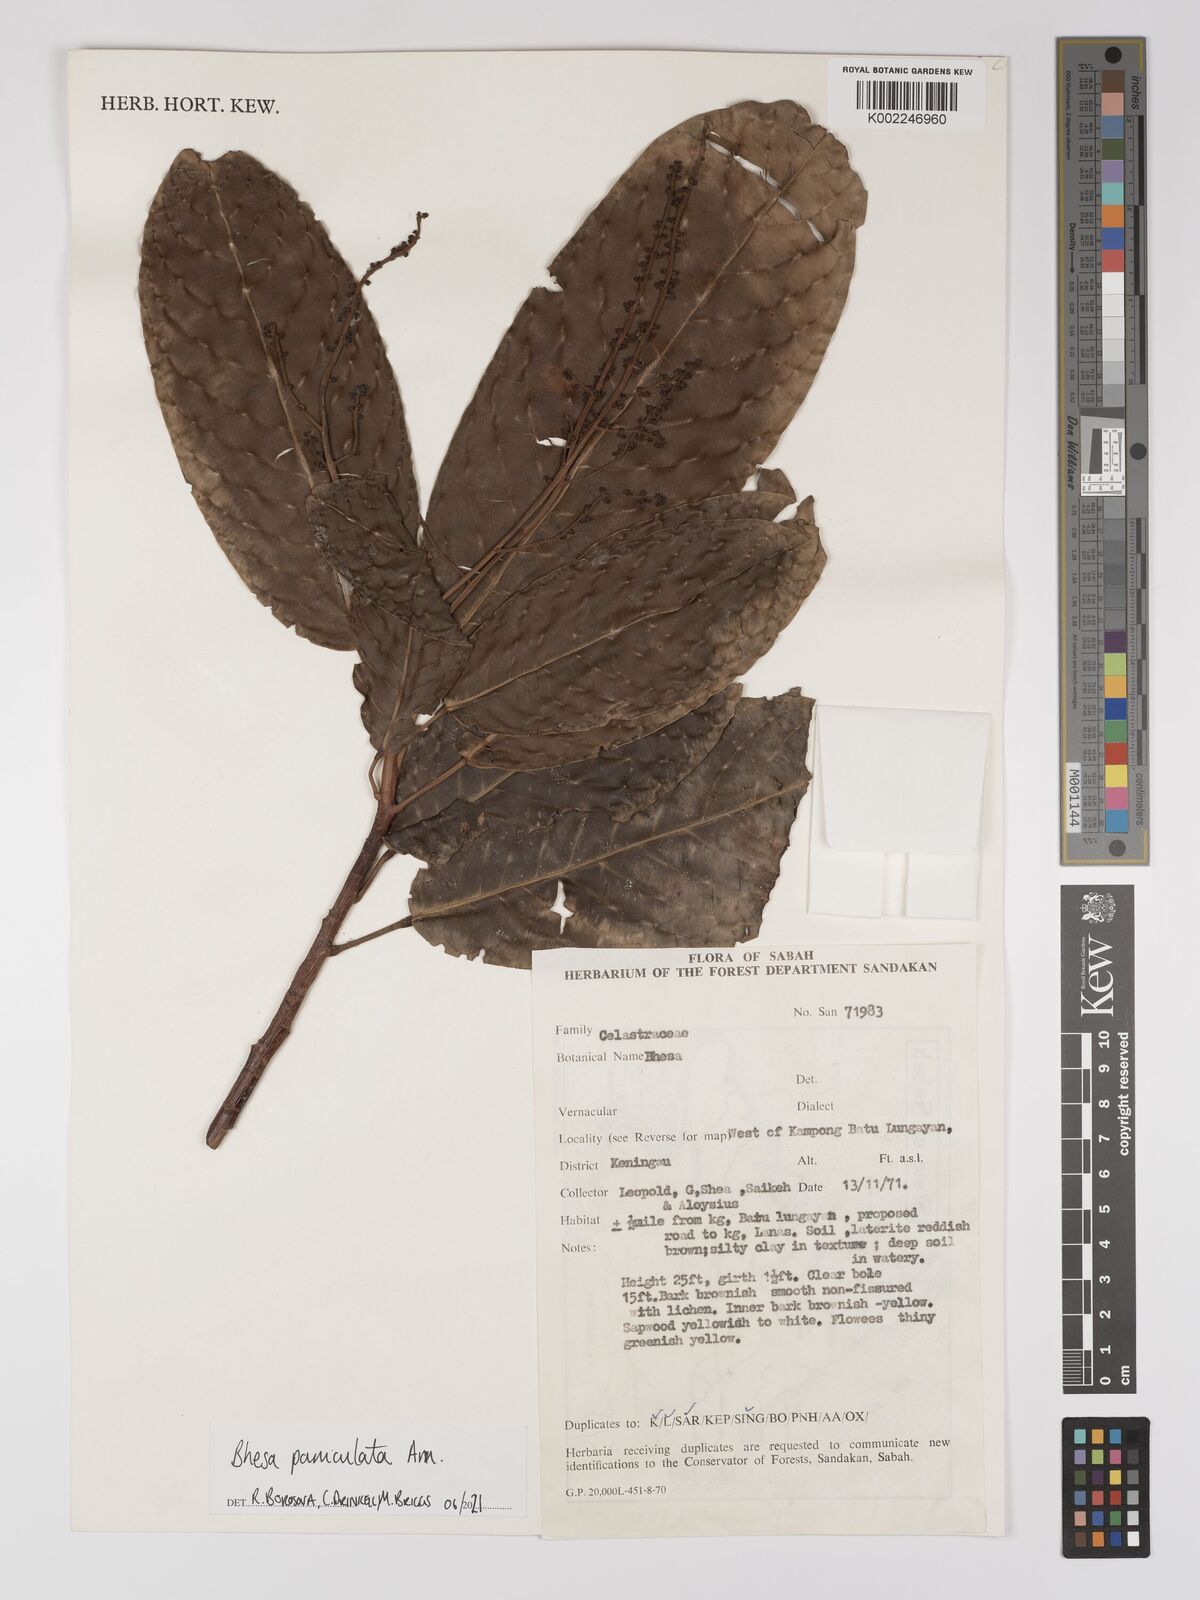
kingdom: Plantae
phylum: Tracheophyta
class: Magnoliopsida
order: Malpighiales
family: Centroplacaceae
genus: Bhesa
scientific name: Bhesa
